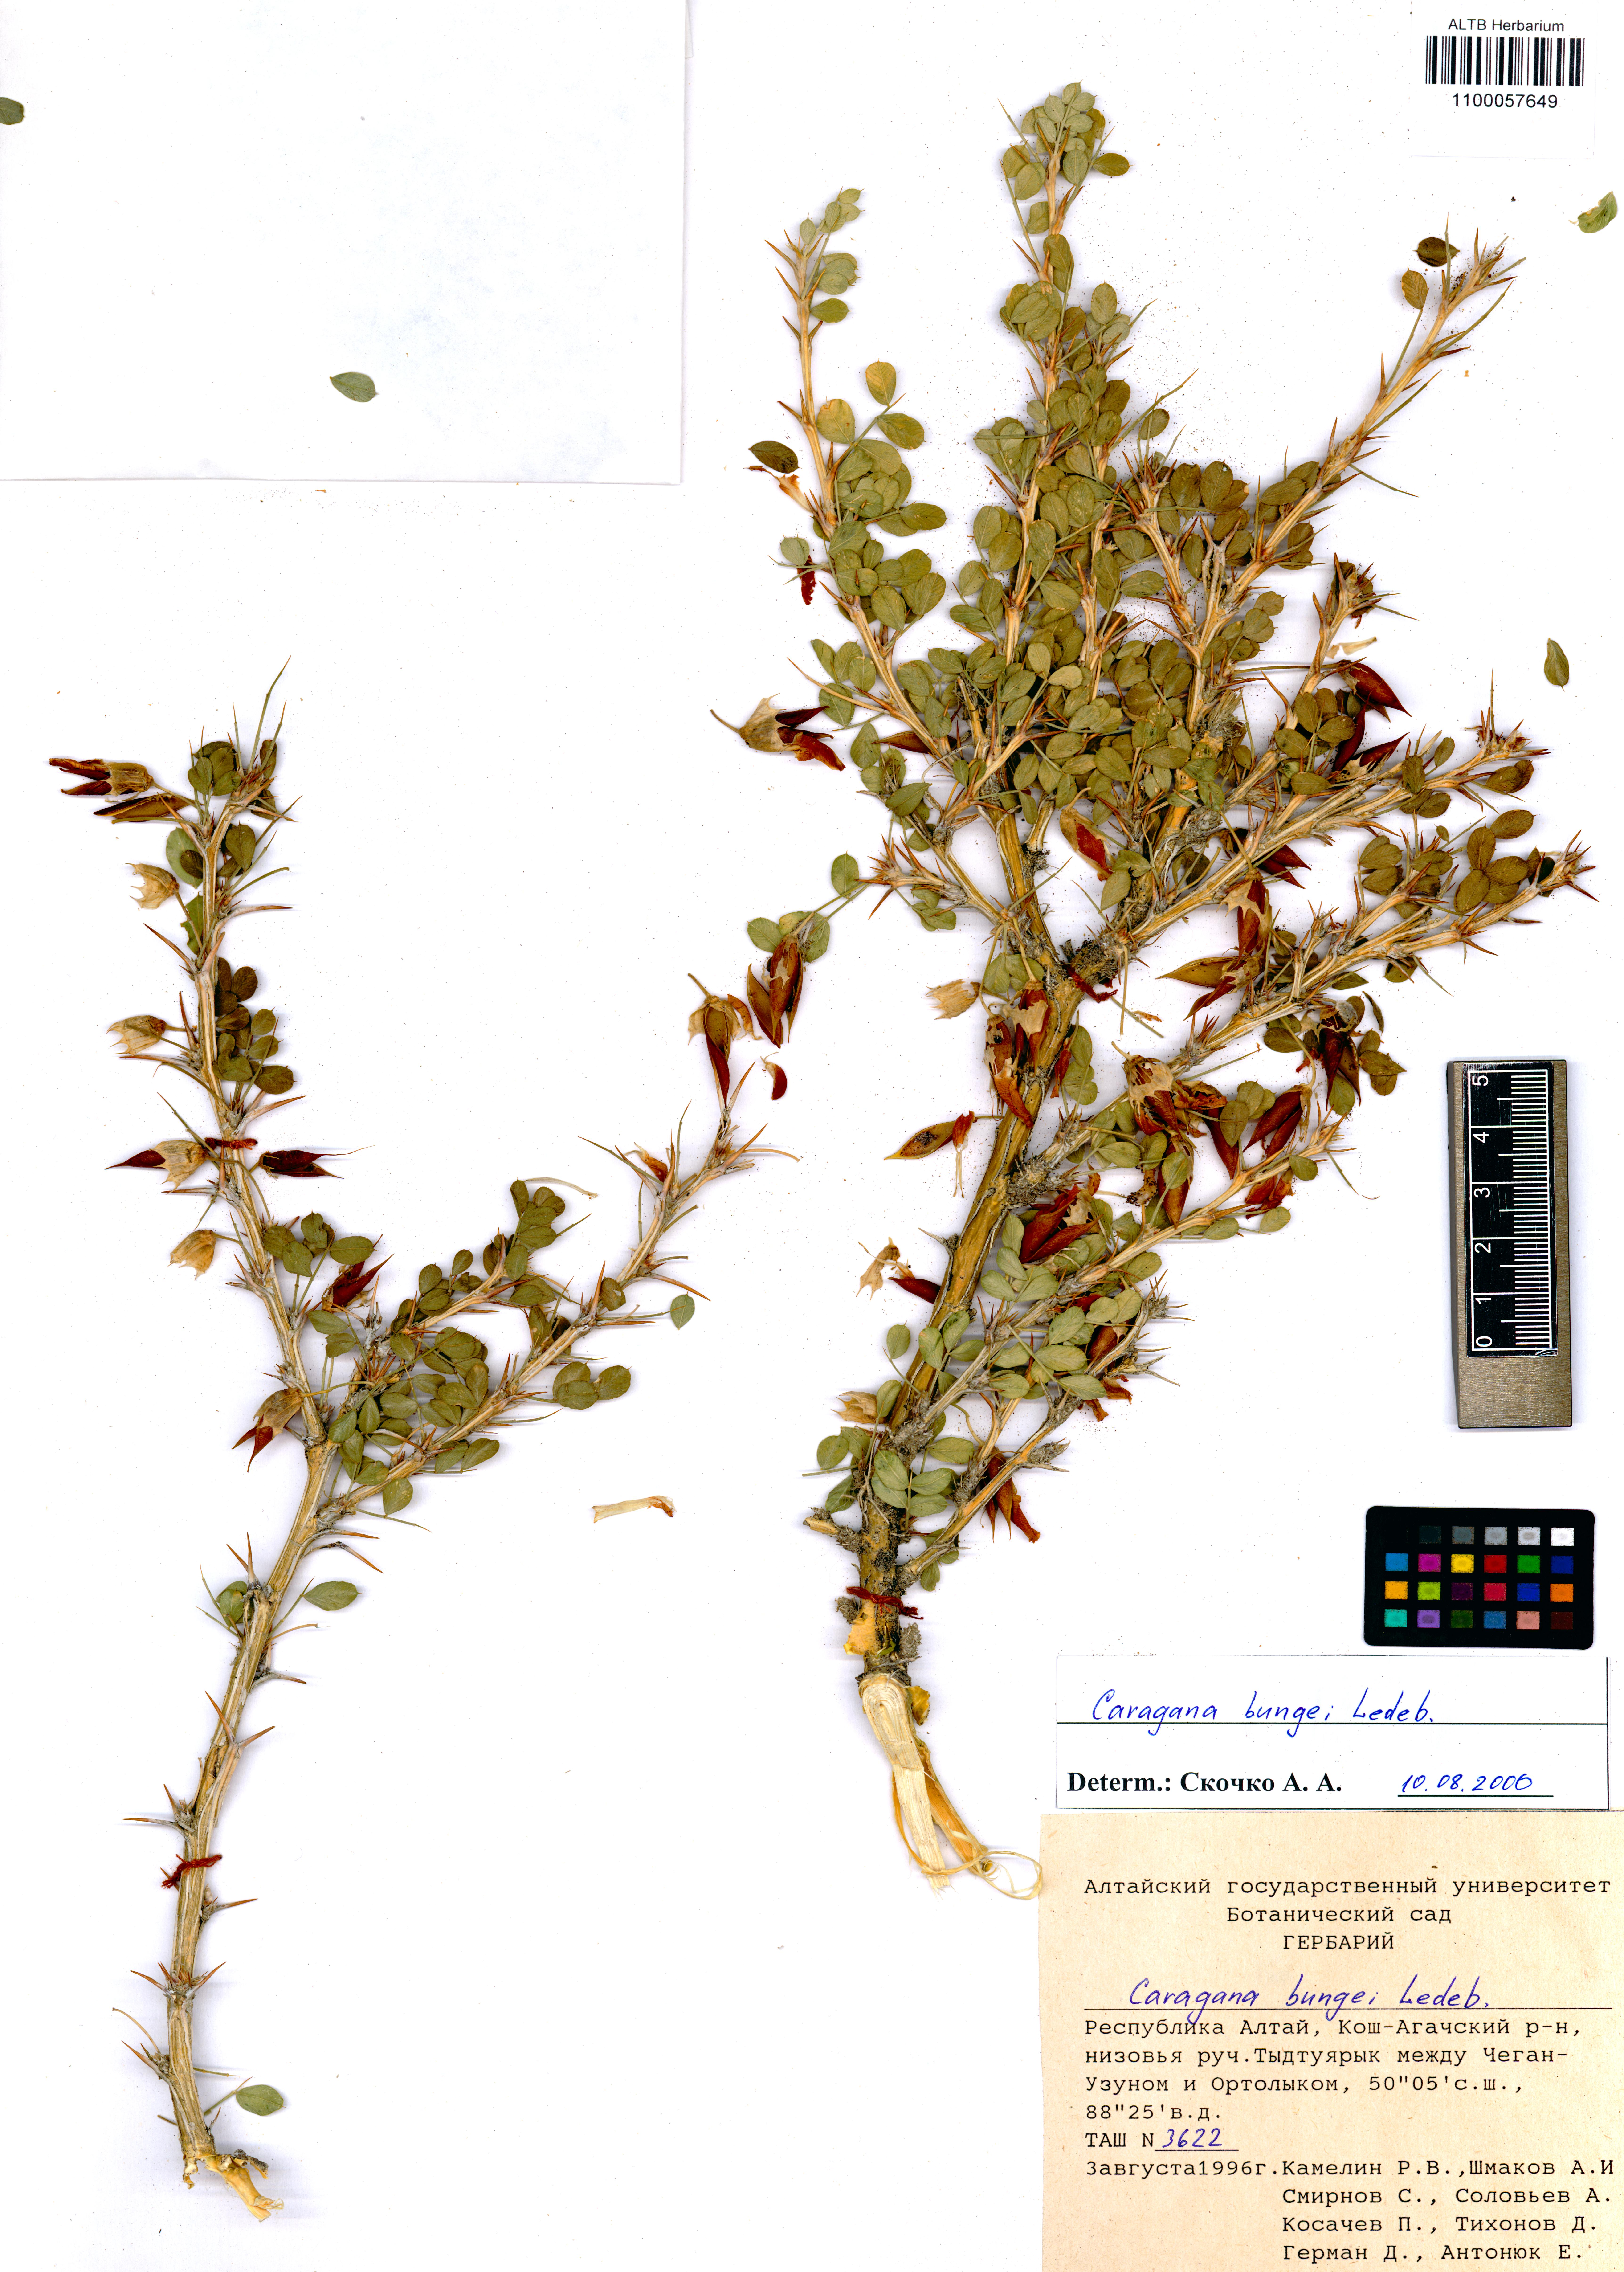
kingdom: Plantae
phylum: Tracheophyta
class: Magnoliopsida
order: Fabales
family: Fabaceae
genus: Caragana
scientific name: Caragana bungei
